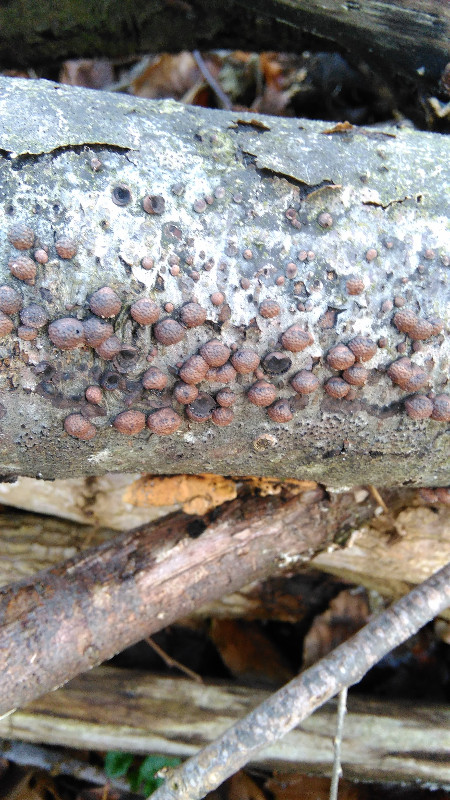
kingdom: Fungi
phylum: Ascomycota
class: Sordariomycetes
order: Xylariales
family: Hypoxylaceae
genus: Hypoxylon
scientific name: Hypoxylon fragiforme
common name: kuljordbær
